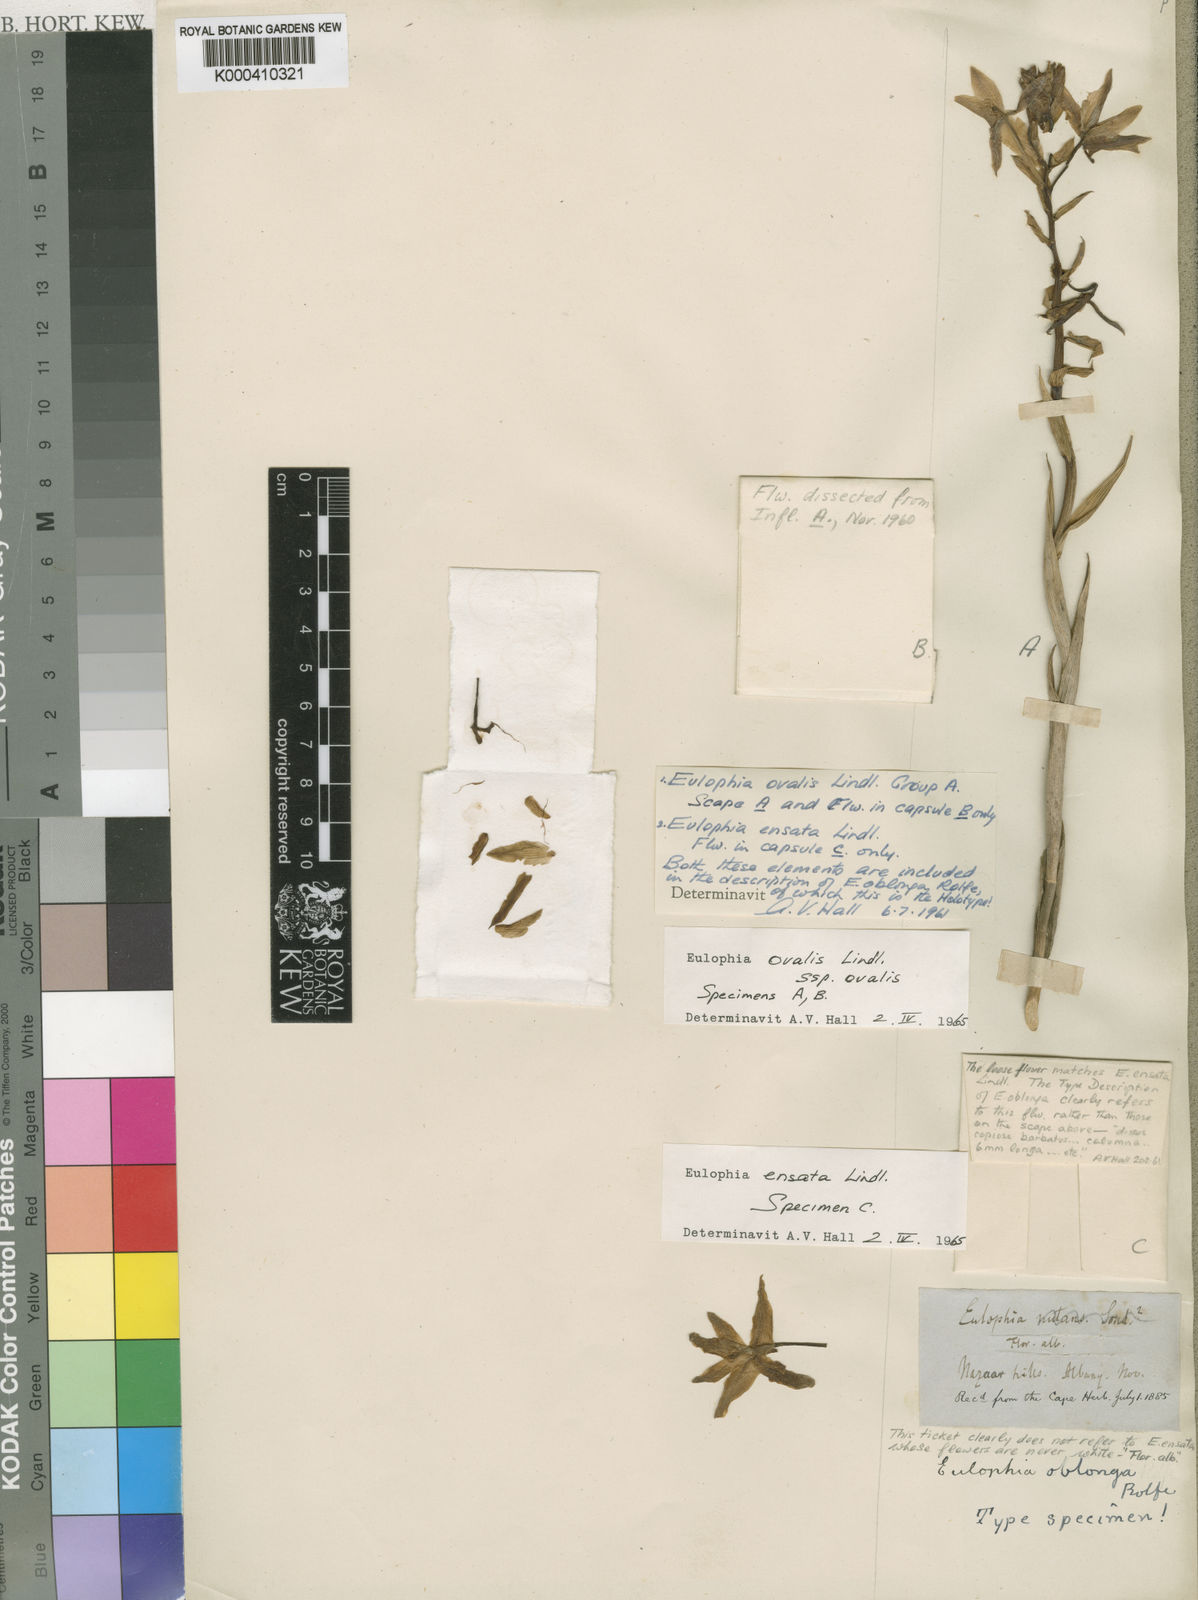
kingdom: Plantae
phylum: Tracheophyta
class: Liliopsida
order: Asparagales
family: Orchidaceae
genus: Eulophia
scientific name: Eulophia ovalis
